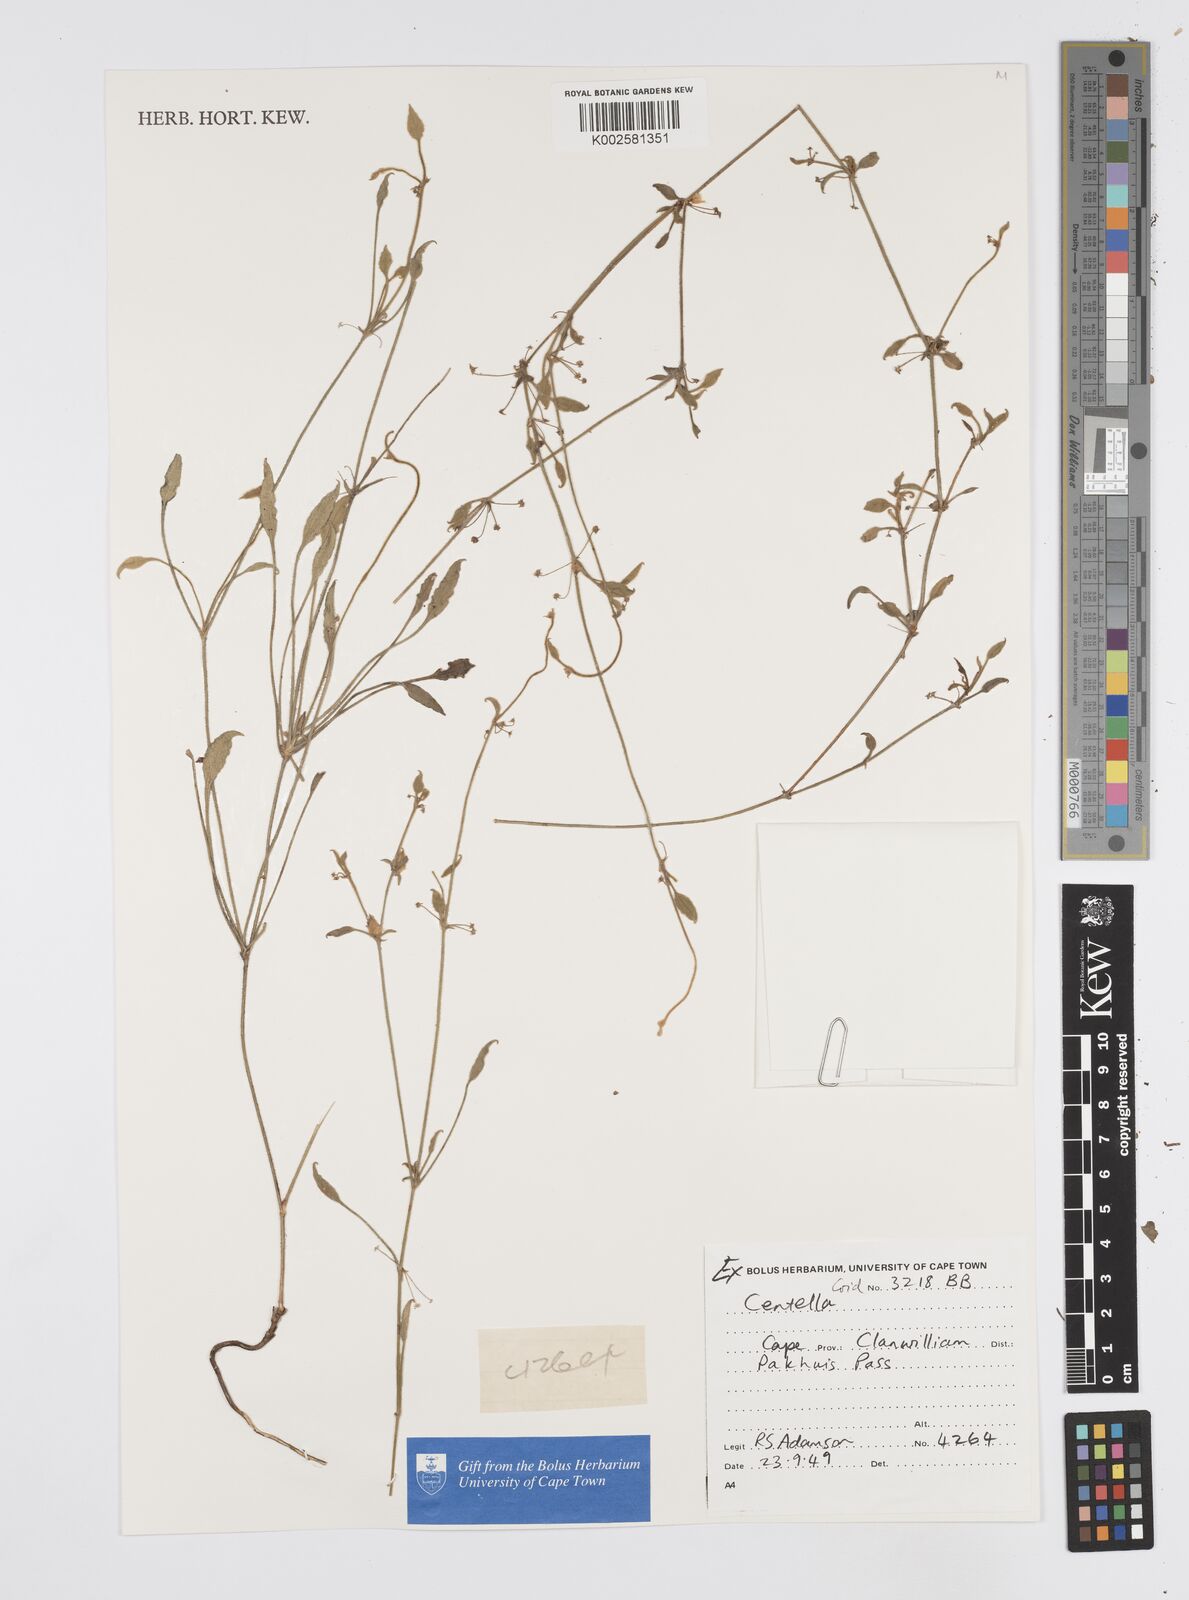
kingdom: Plantae
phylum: Tracheophyta
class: Magnoliopsida
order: Apiales
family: Apiaceae
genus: Centella
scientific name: Centella
